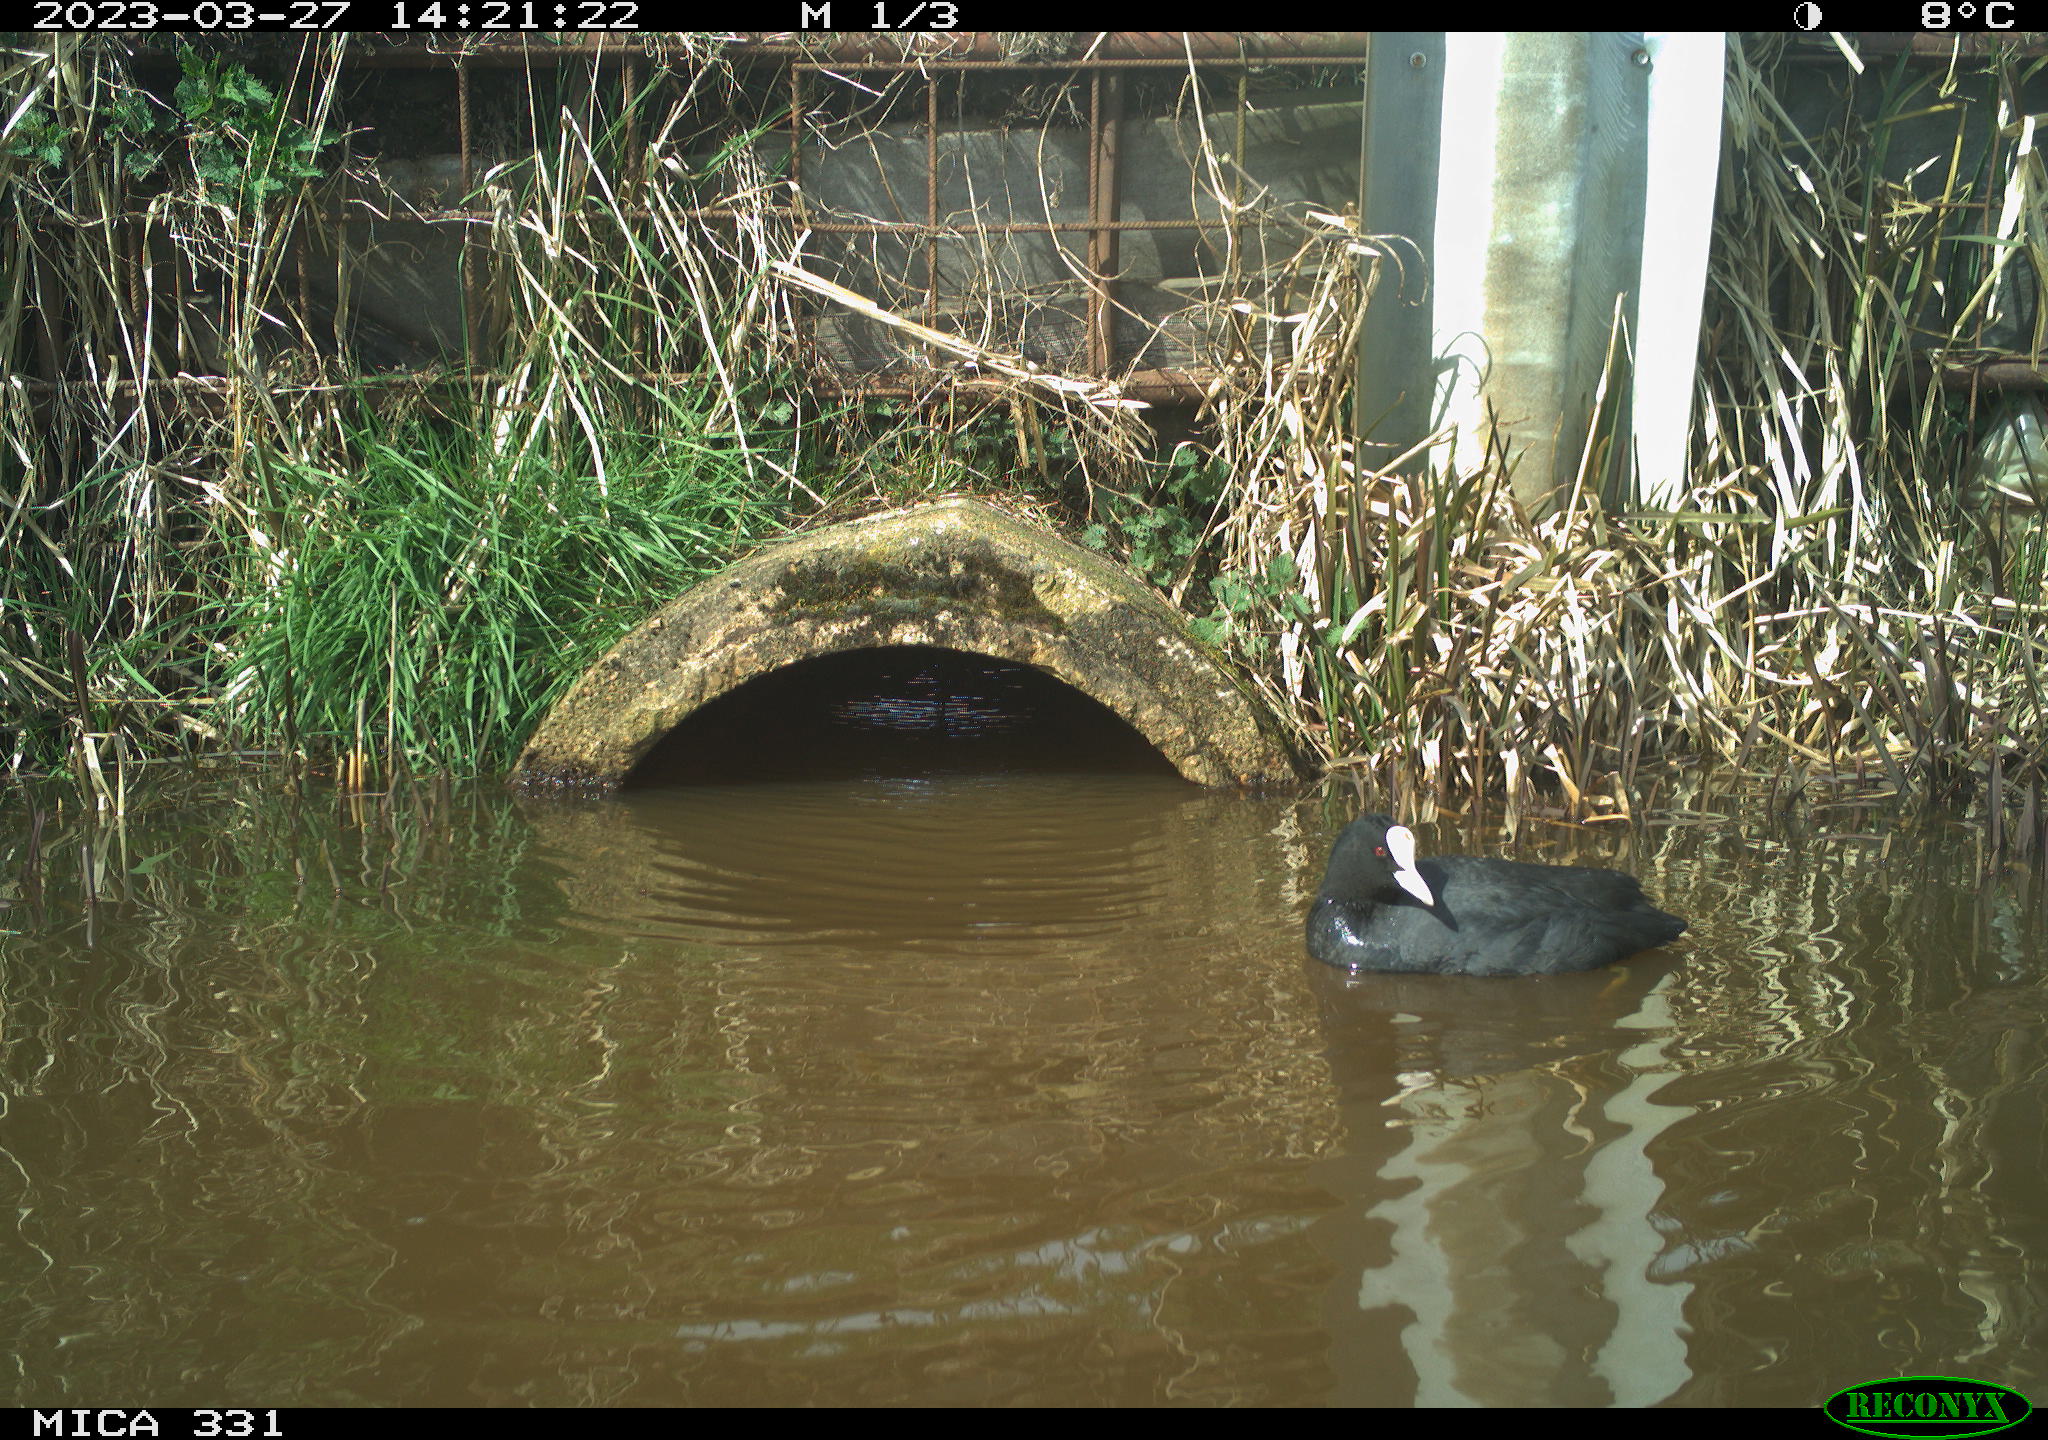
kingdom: Animalia
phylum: Chordata
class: Aves
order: Gruiformes
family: Rallidae
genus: Fulica
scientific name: Fulica atra
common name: Eurasian coot
